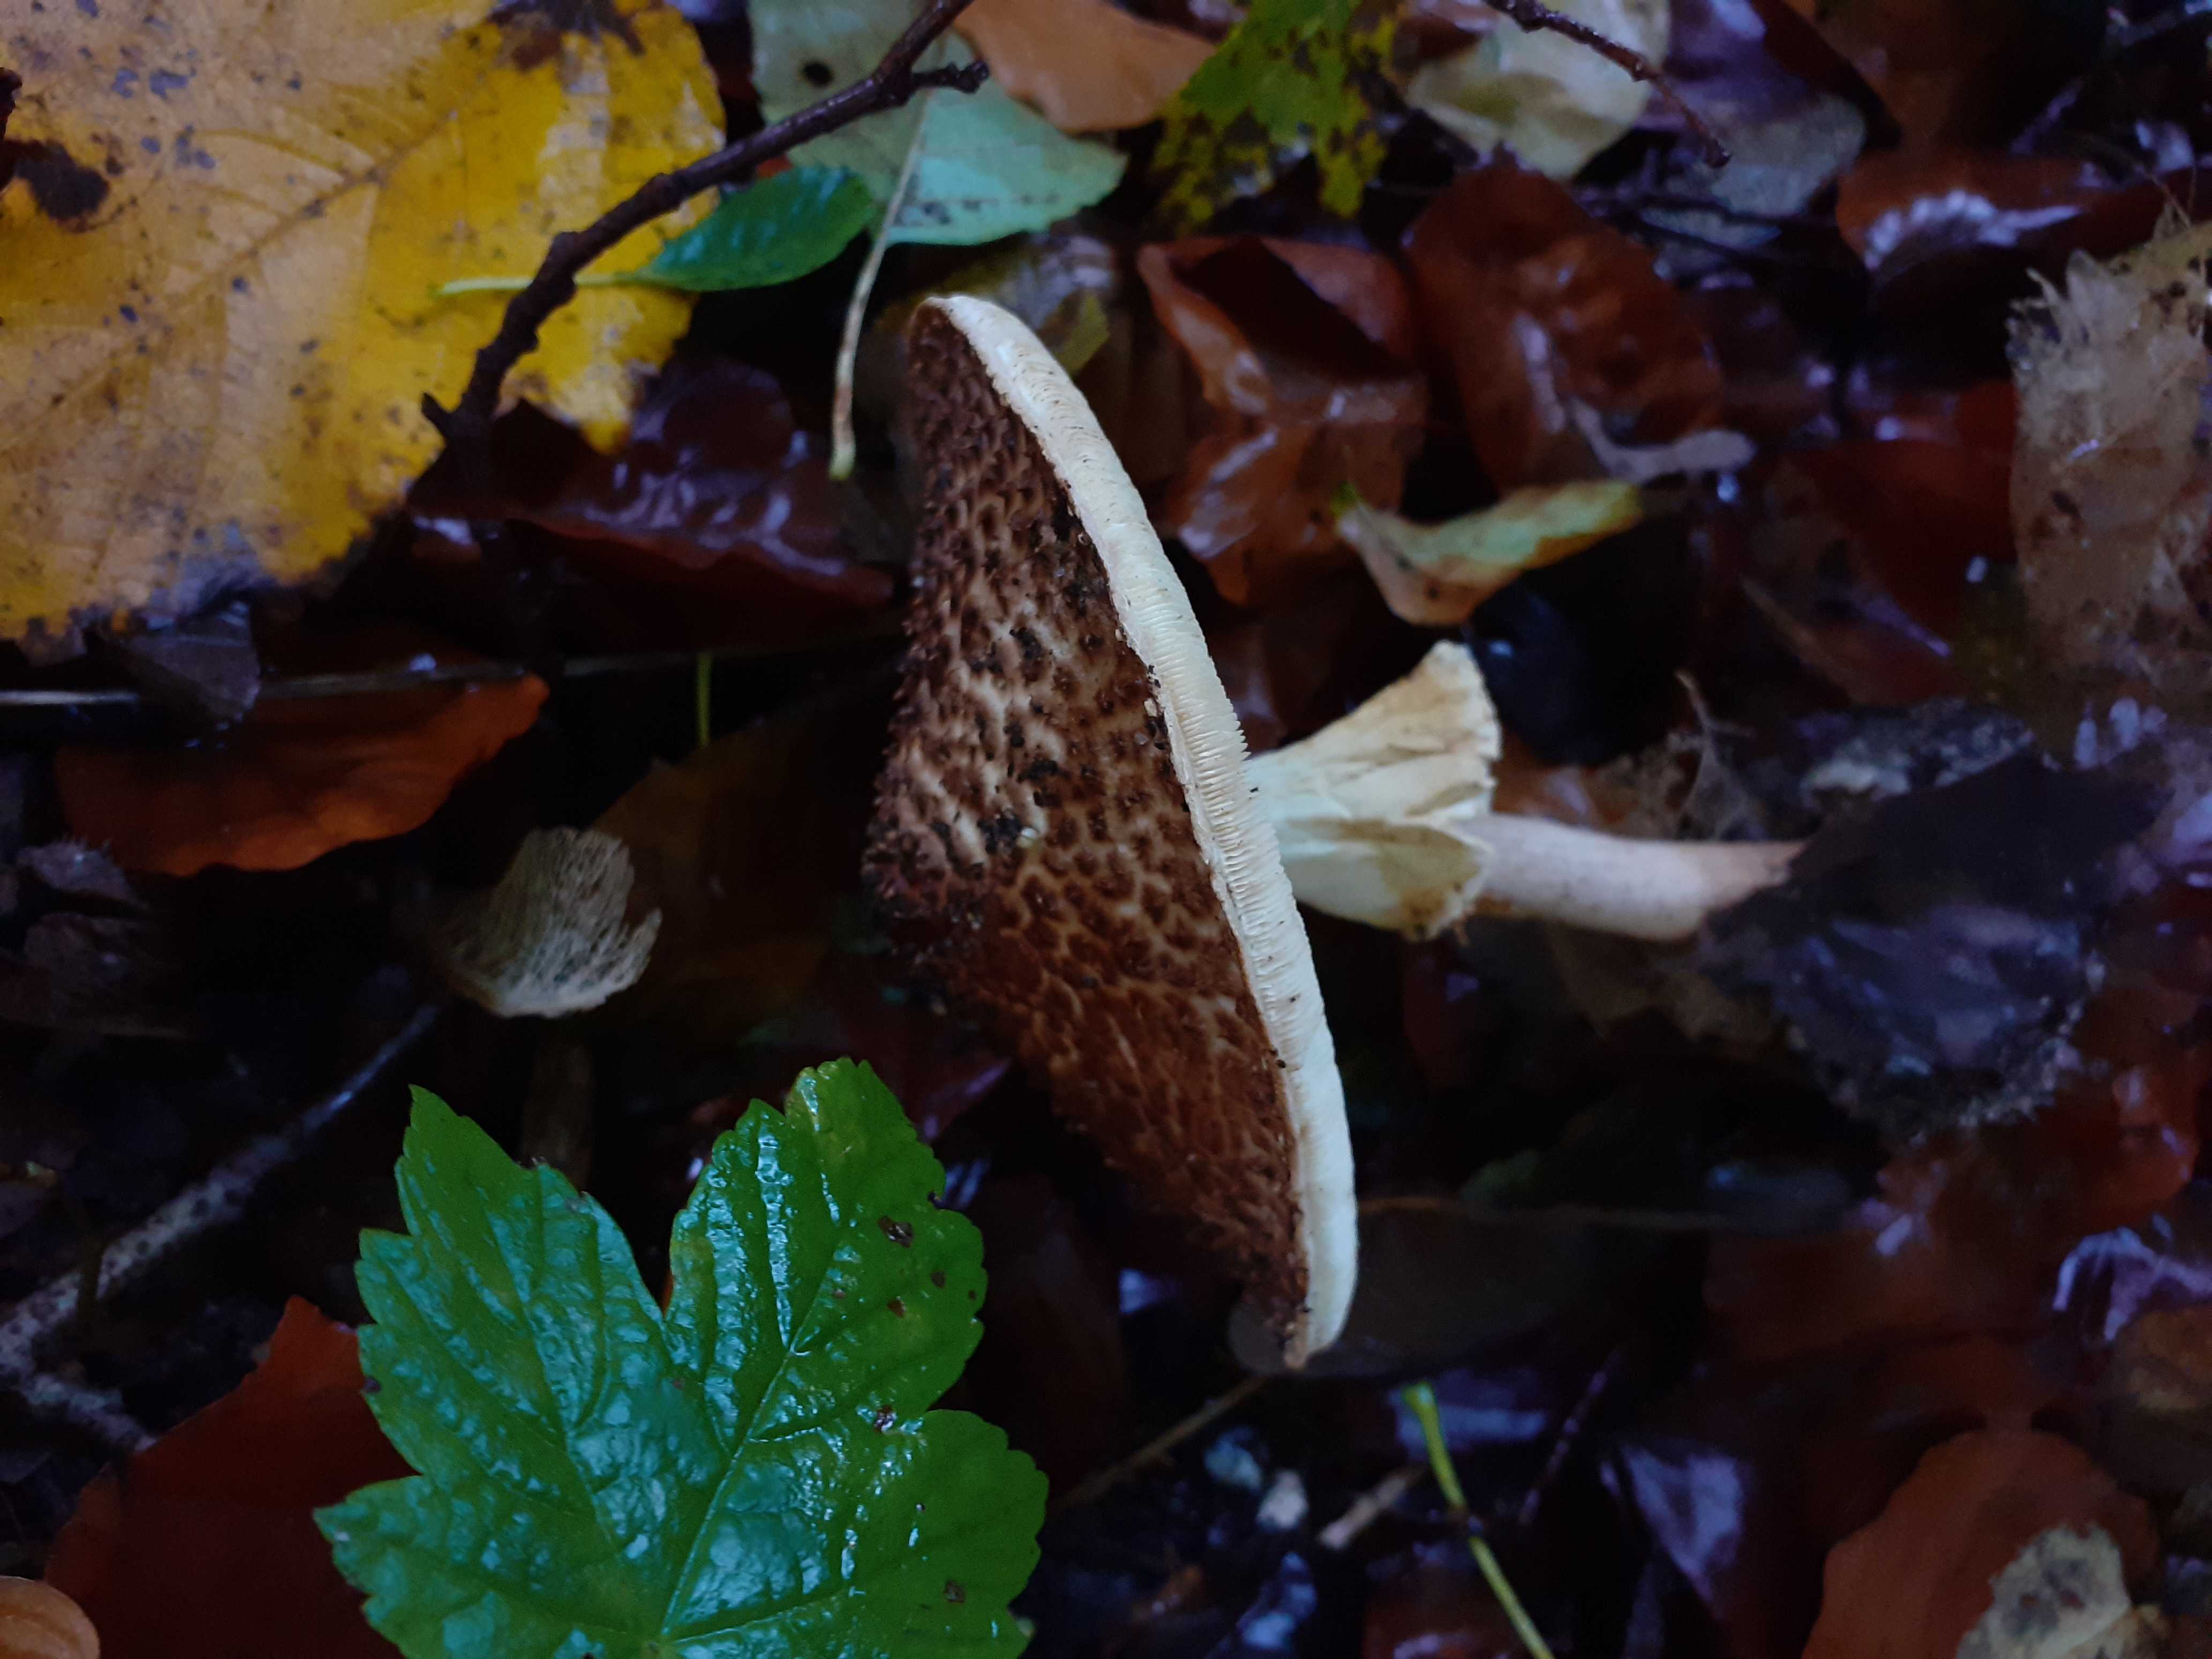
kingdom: Fungi
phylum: Basidiomycota
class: Agaricomycetes
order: Agaricales
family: Agaricaceae
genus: Echinoderma
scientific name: Echinoderma asperum
